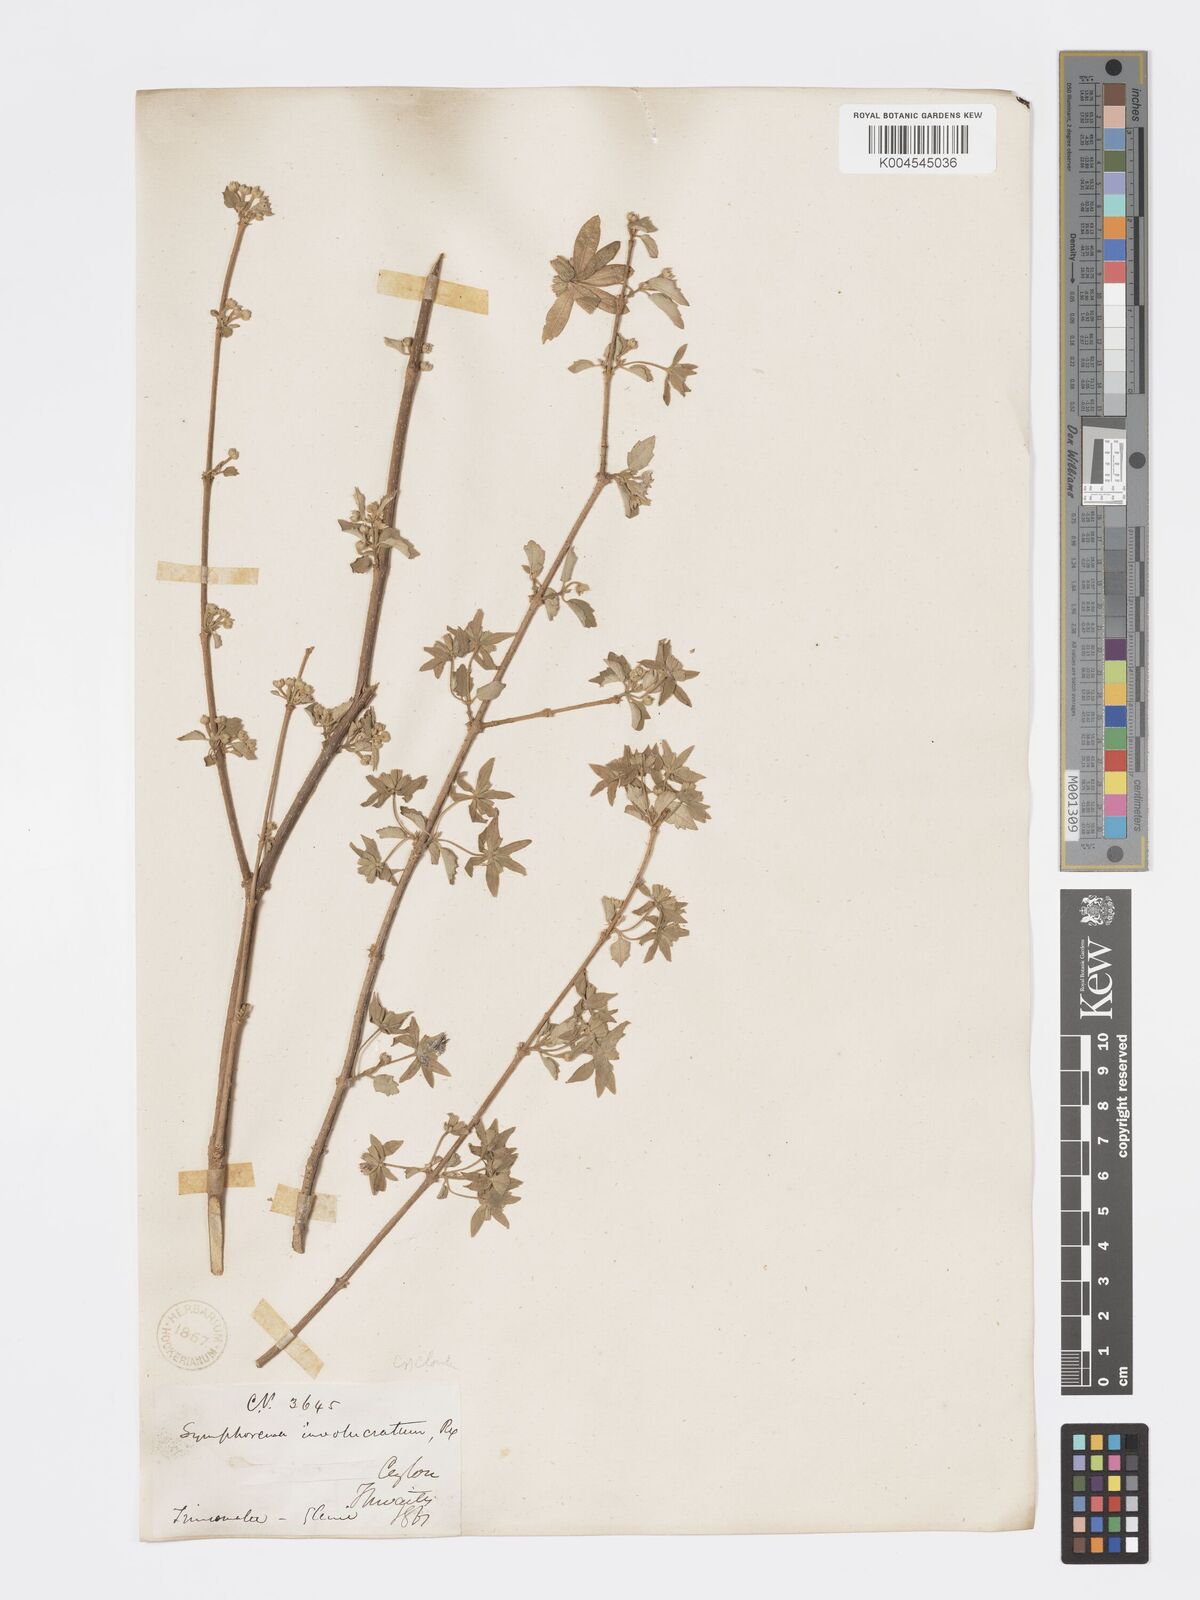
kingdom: Plantae
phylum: Tracheophyta
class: Magnoliopsida
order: Lamiales
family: Lamiaceae
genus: Symphorema
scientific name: Symphorema involucratum
